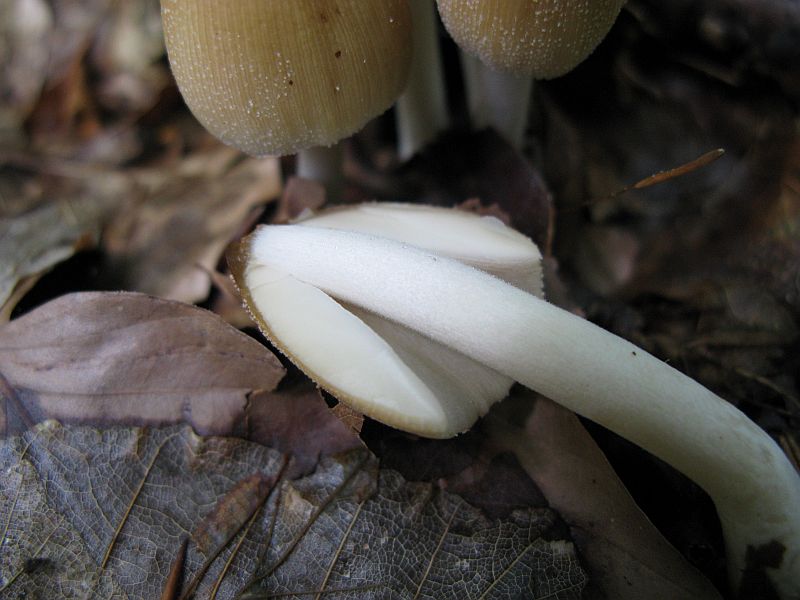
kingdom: Fungi
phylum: Basidiomycota
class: Agaricomycetes
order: Agaricales
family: Psathyrellaceae
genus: Coprinellus
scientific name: Coprinellus micaceus
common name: glimmer-blækhat
